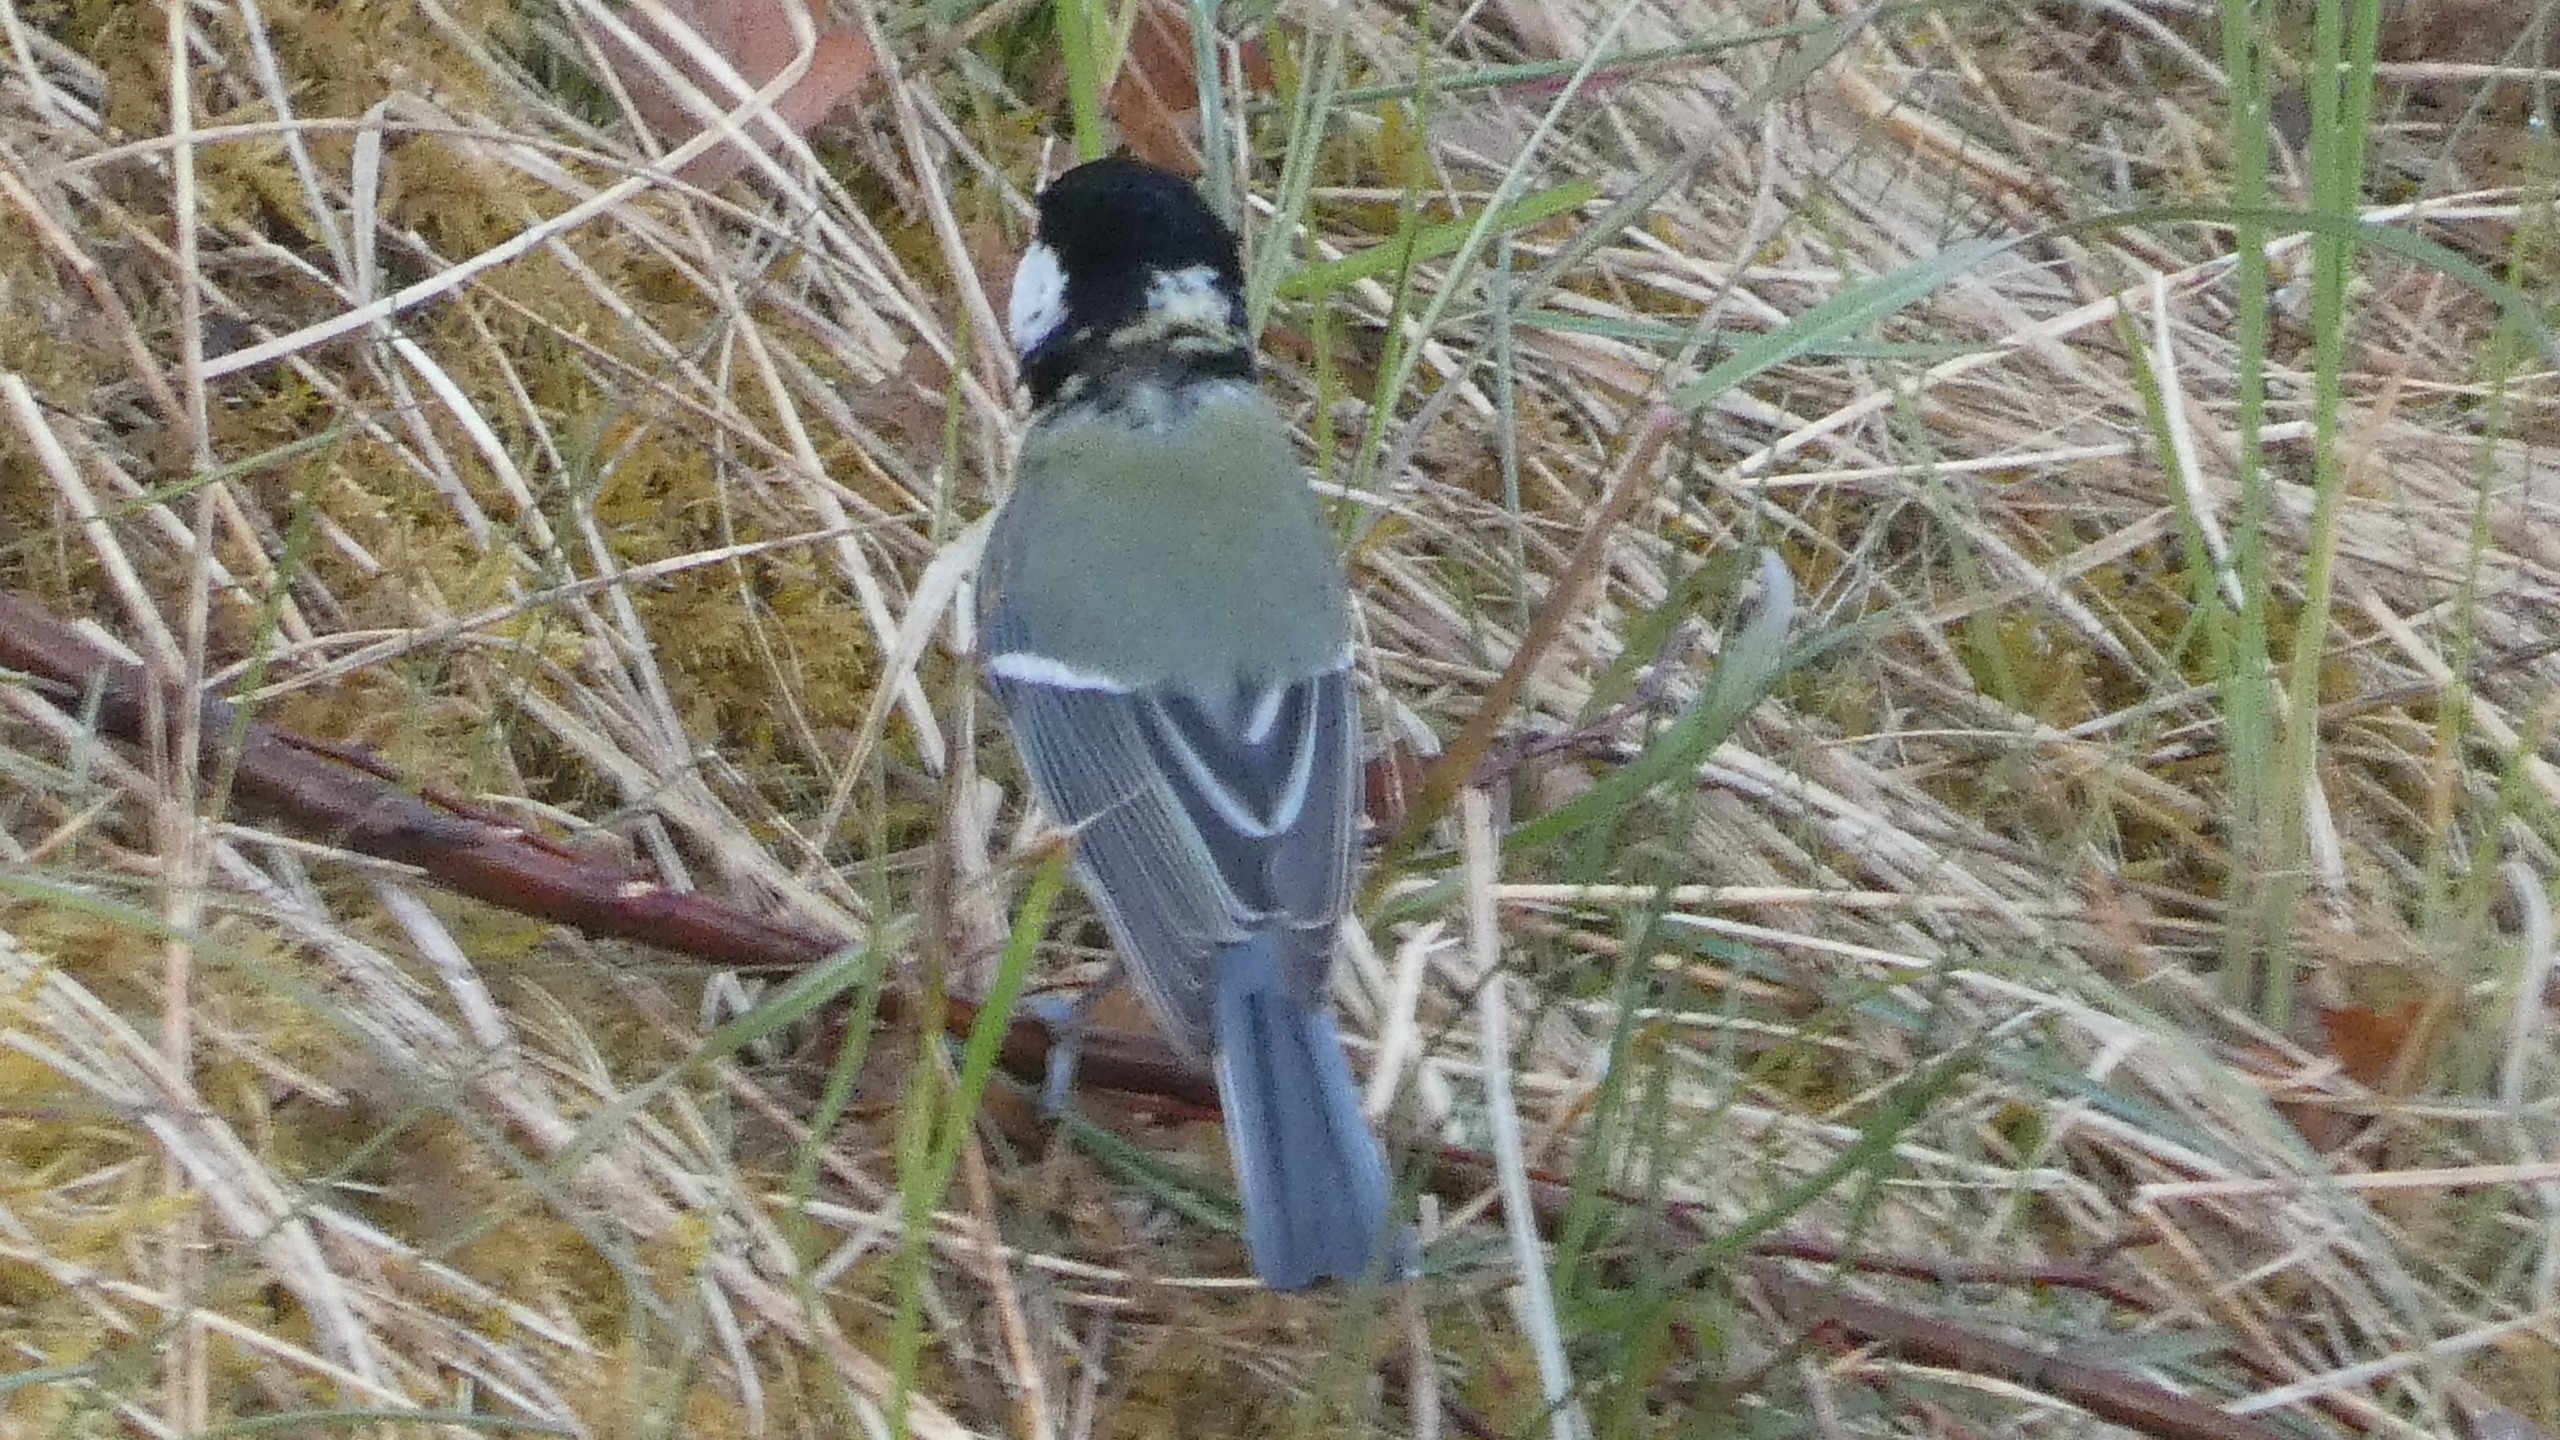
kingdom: Animalia
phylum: Chordata
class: Aves
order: Passeriformes
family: Paridae
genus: Parus
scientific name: Parus major
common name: Musvit
